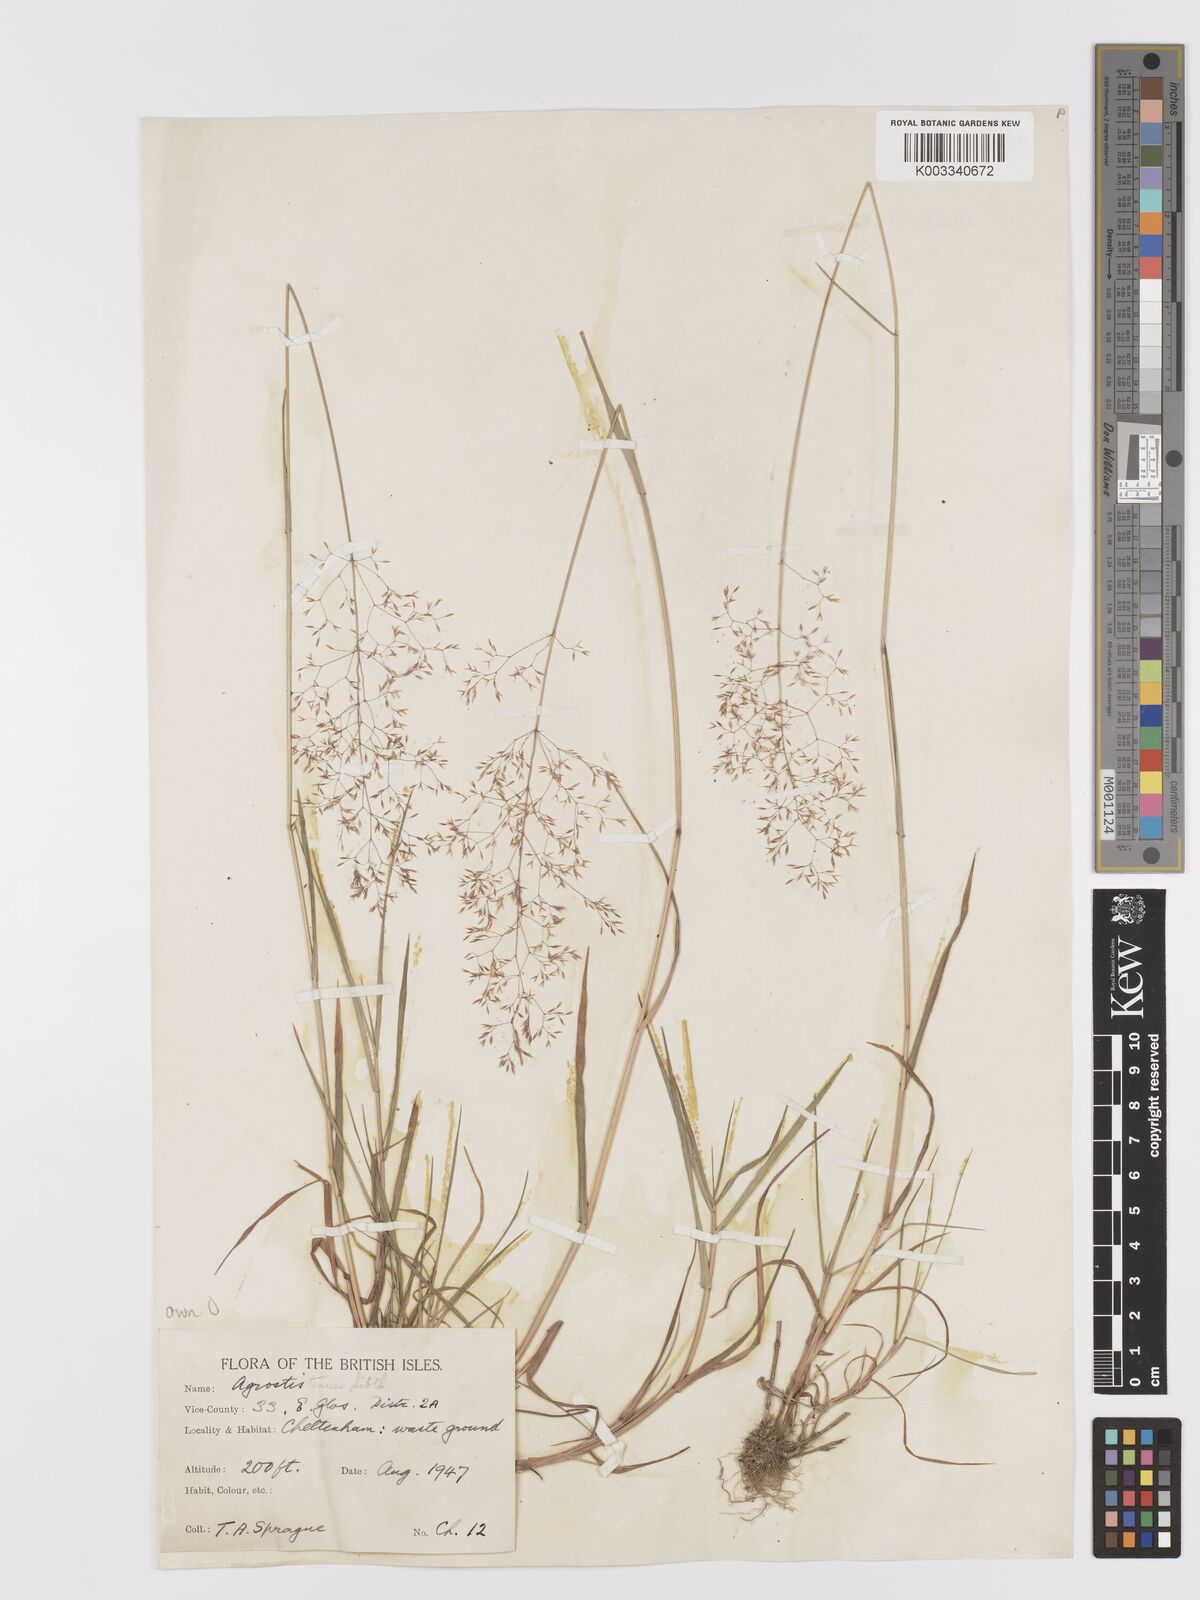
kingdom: Plantae
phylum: Tracheophyta
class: Liliopsida
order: Poales
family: Poaceae
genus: Agrostis
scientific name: Agrostis capillaris
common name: Colonial bentgrass
